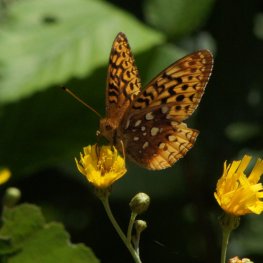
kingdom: Animalia
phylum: Arthropoda
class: Insecta
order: Lepidoptera
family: Nymphalidae
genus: Speyeria
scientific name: Speyeria cybele
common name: Great Spangled Fritillary
